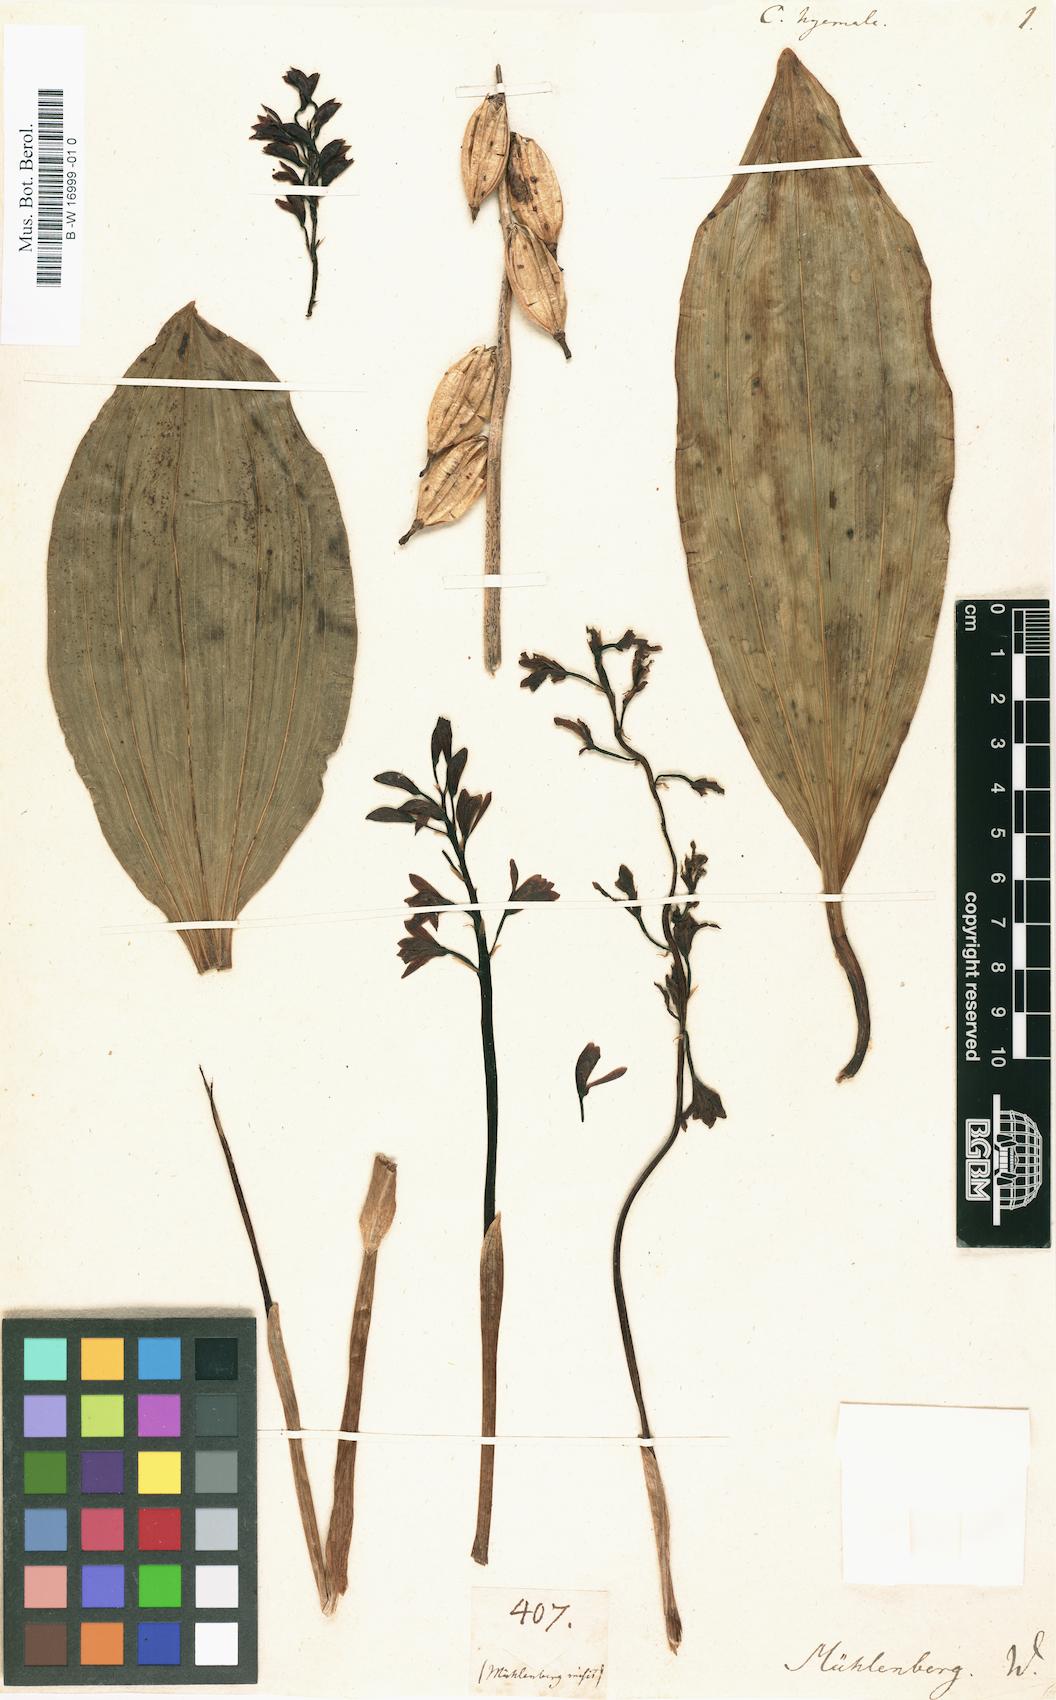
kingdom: Plantae
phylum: Tracheophyta
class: Liliopsida
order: Asparagales
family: Orchidaceae
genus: Aplectrum
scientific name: Aplectrum hyemale
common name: Adam-and-eve
